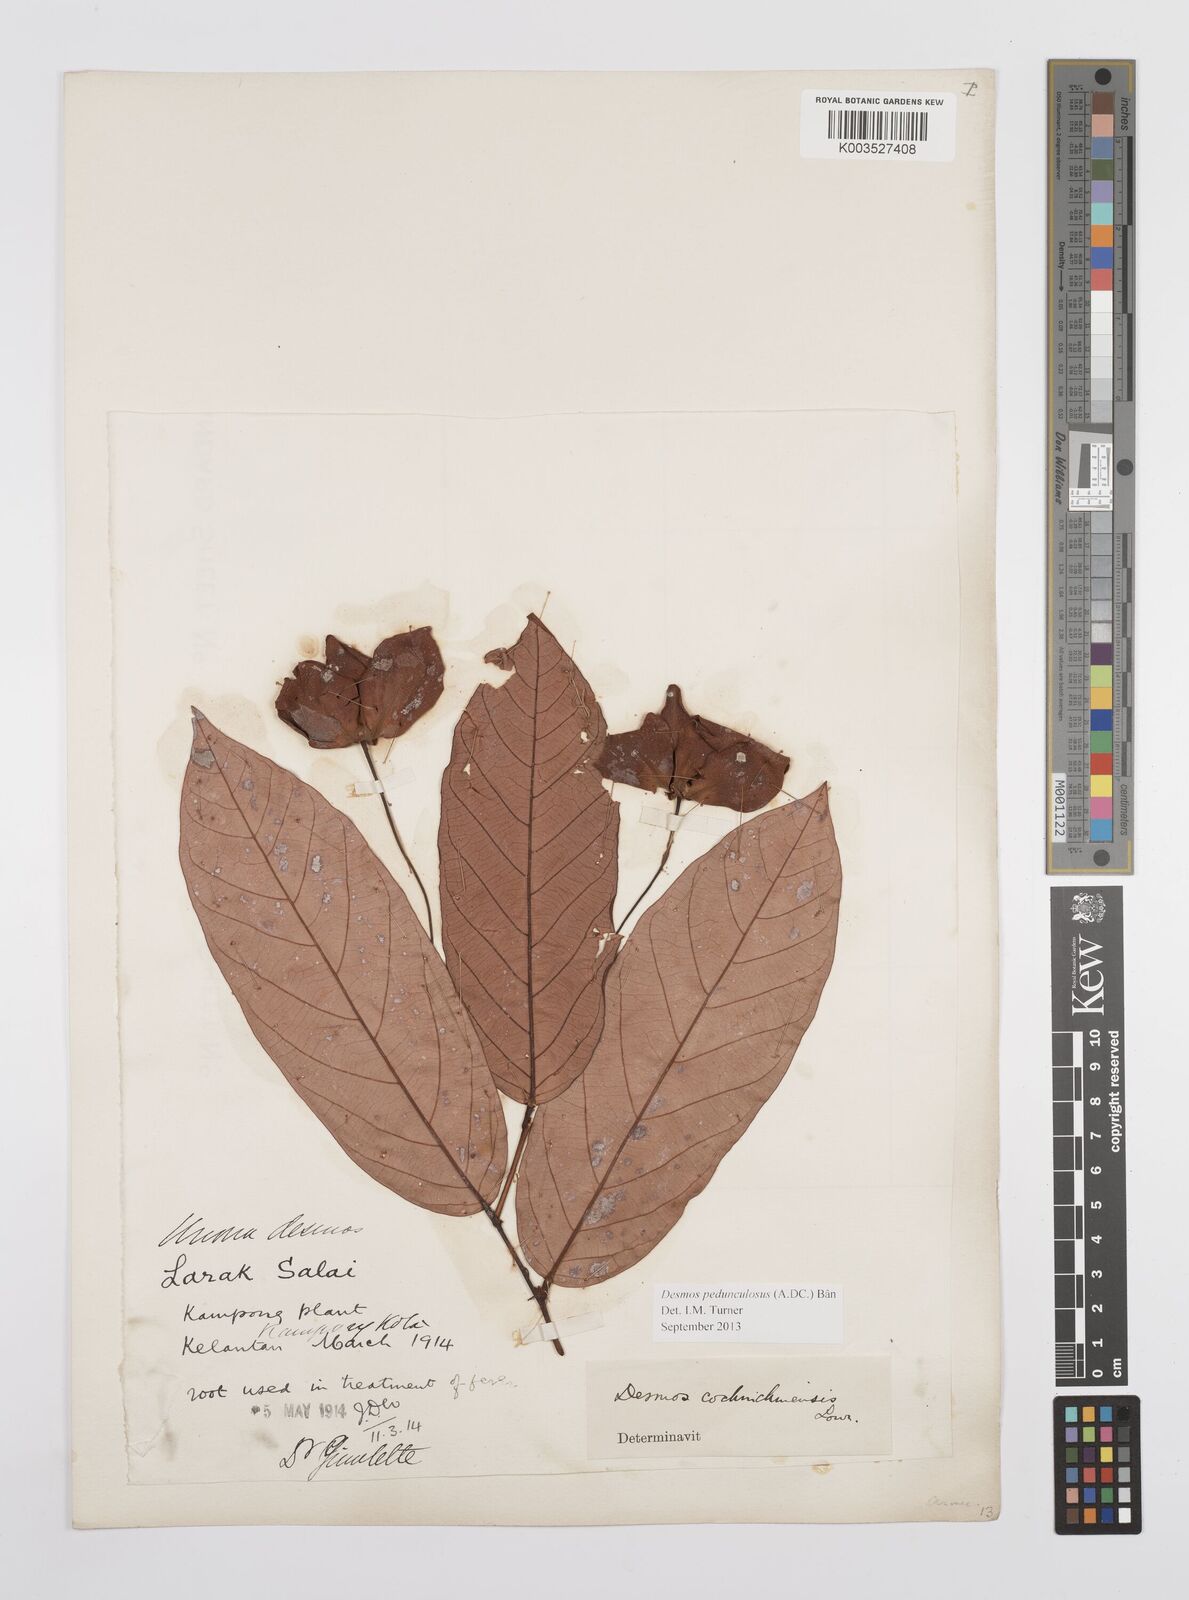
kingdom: Plantae
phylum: Tracheophyta
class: Magnoliopsida
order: Magnoliales
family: Annonaceae
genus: Desmos
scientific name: Desmos cochinchinensis
